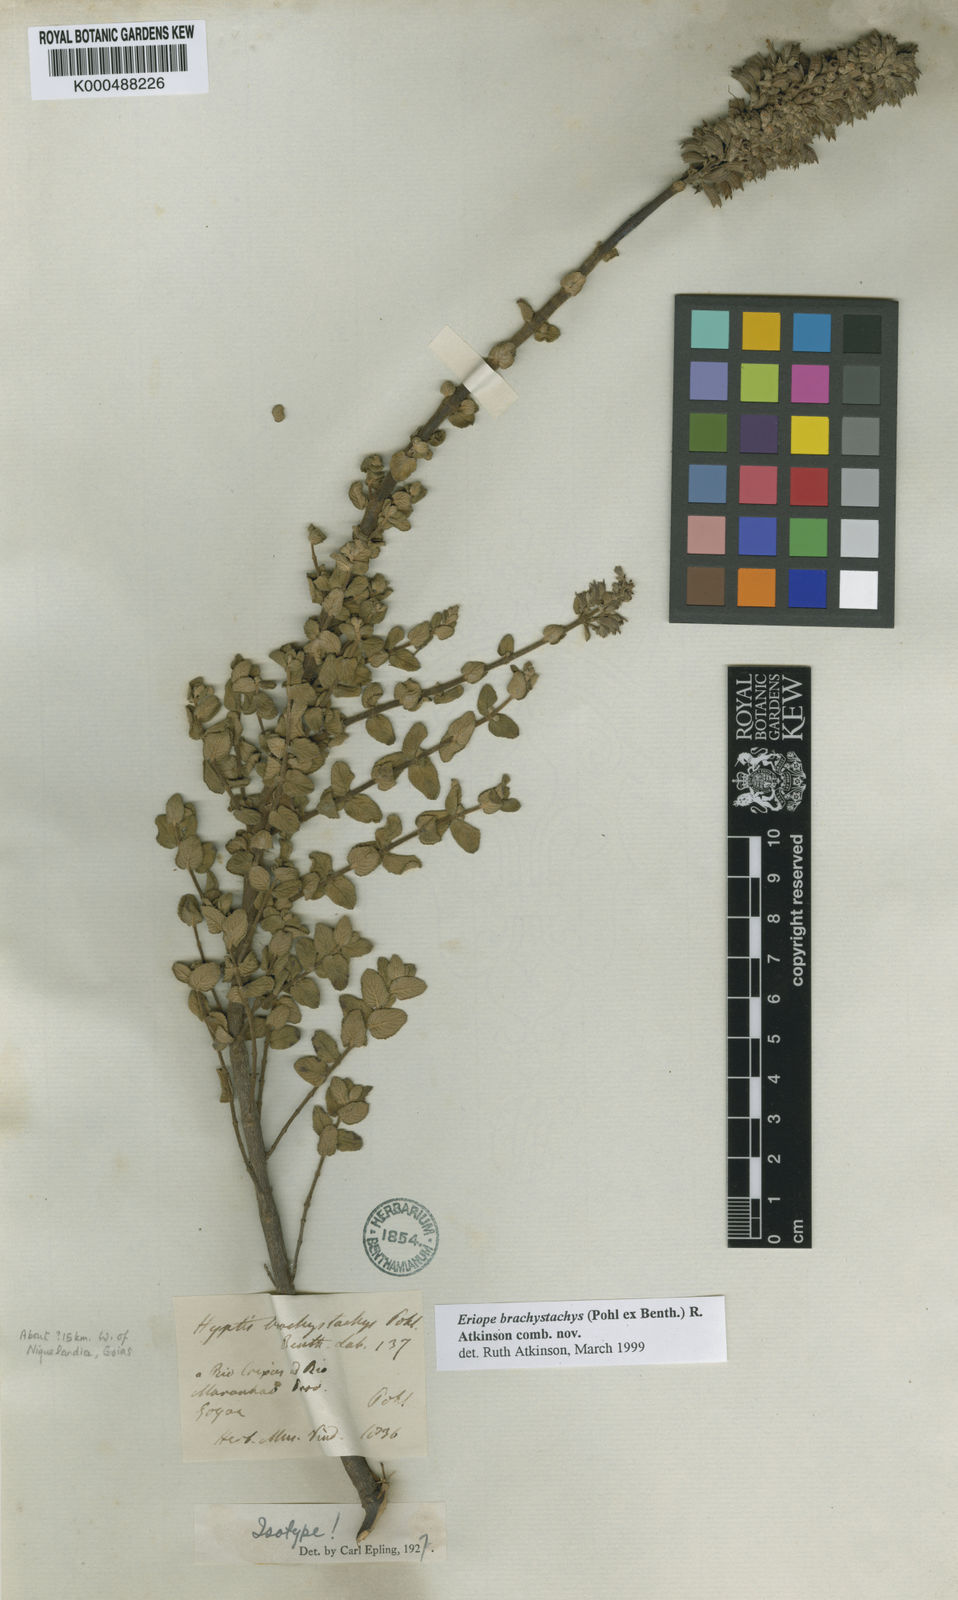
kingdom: Plantae
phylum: Tracheophyta
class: Magnoliopsida
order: Lamiales
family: Lamiaceae
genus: Hypenia
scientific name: Hypenia brachystachys
